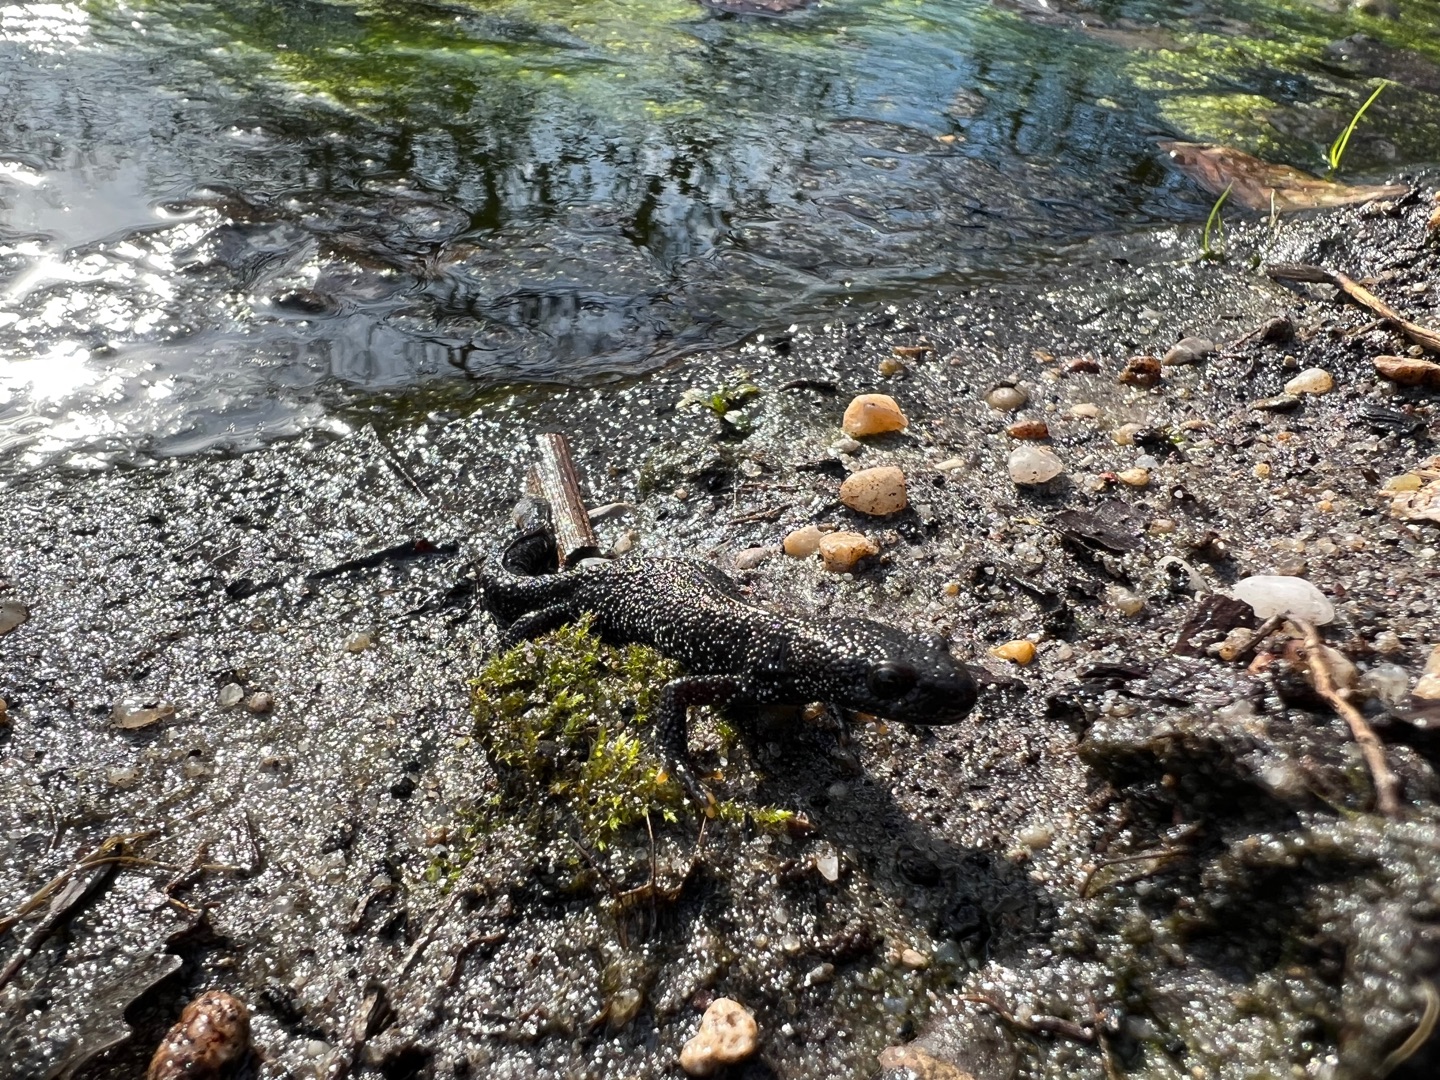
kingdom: Animalia
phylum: Chordata
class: Amphibia
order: Caudata
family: Salamandridae
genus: Triturus
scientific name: Triturus cristatus
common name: Stor vandsalamander
